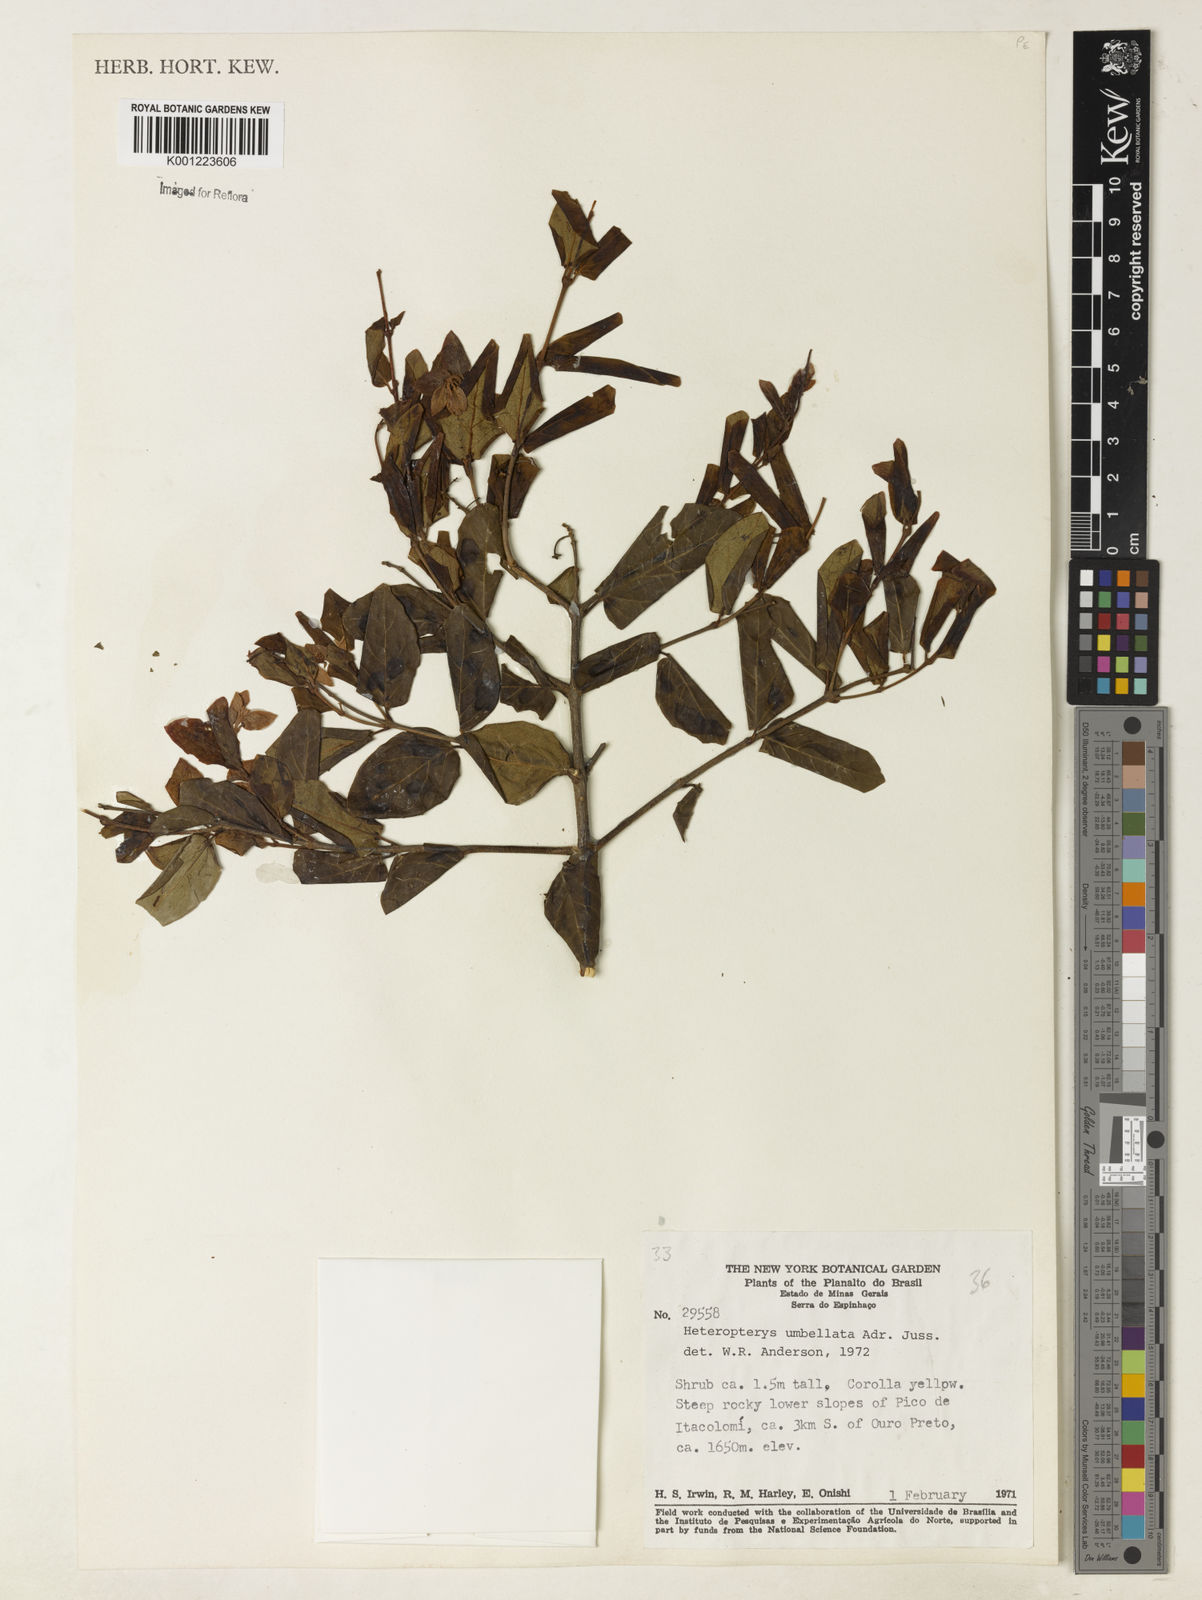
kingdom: Plantae
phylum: Tracheophyta
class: Magnoliopsida
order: Malpighiales
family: Malpighiaceae
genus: Heteropterys
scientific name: Heteropterys umbellata
